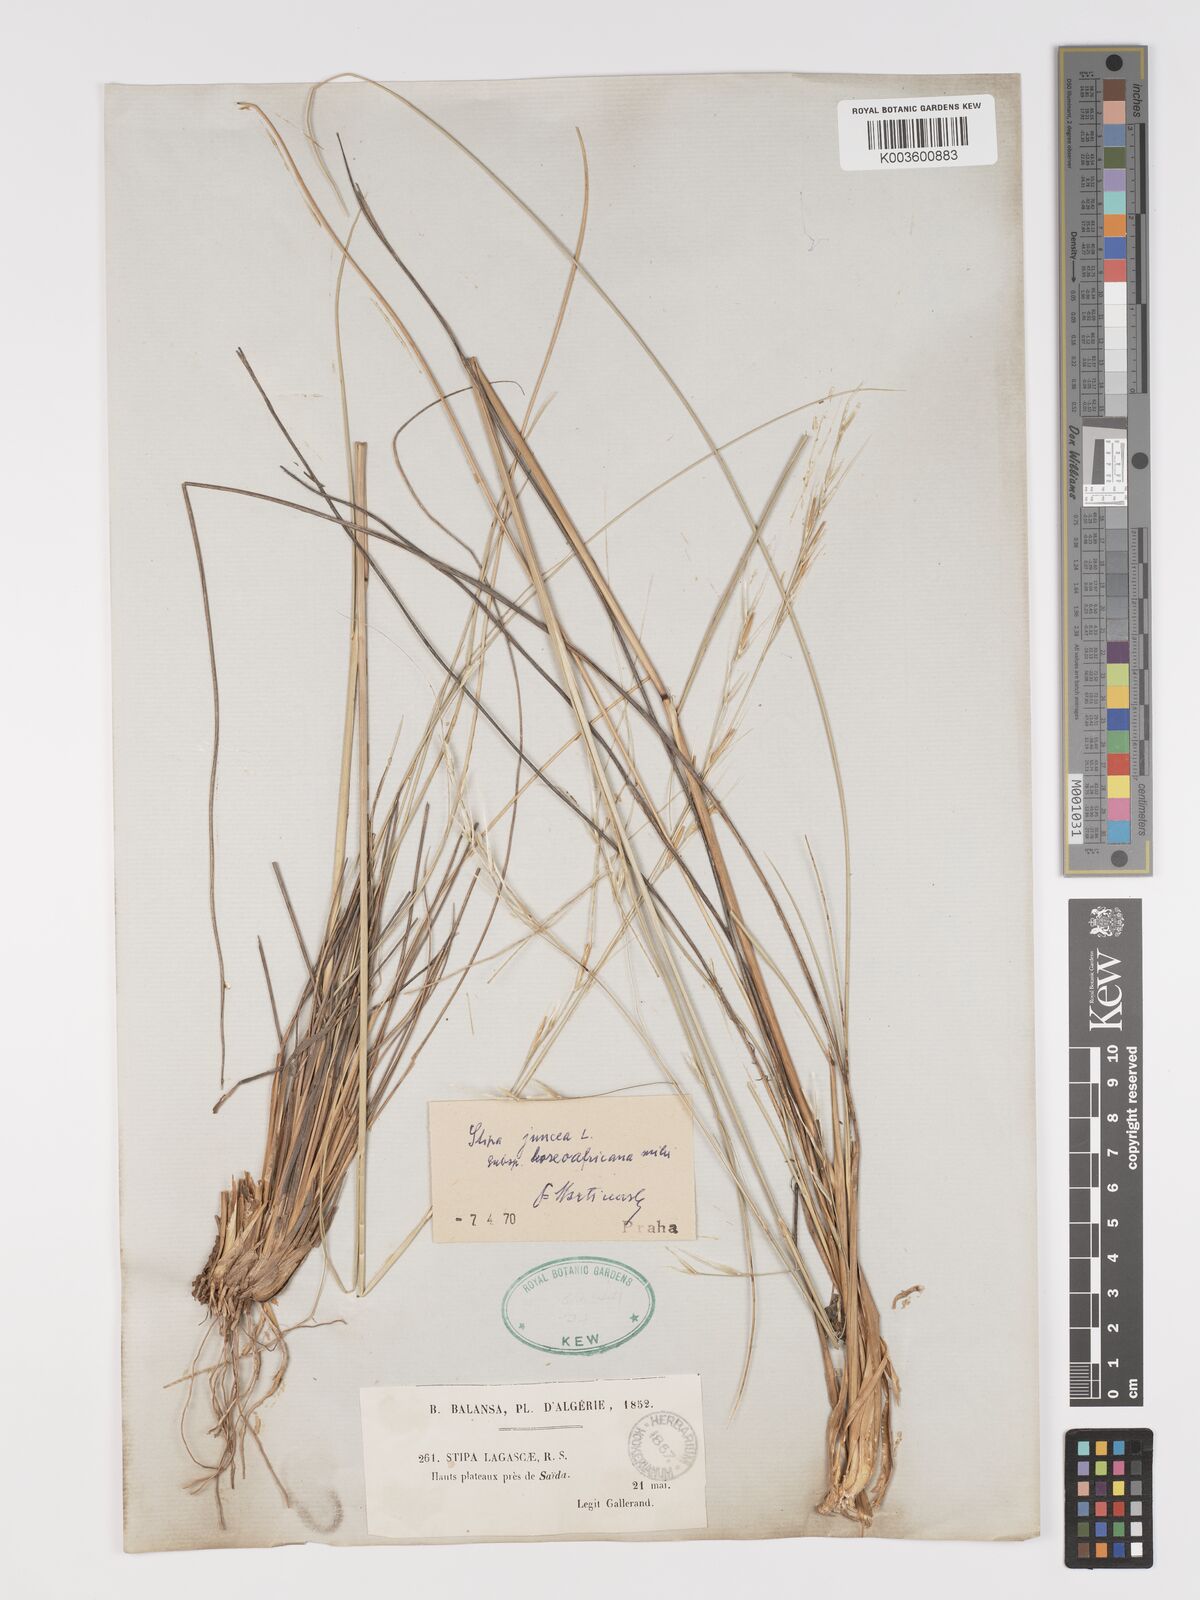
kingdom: Plantae
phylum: Tracheophyta
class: Liliopsida
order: Poales
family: Poaceae
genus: Stipa
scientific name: Stipa lagascae
